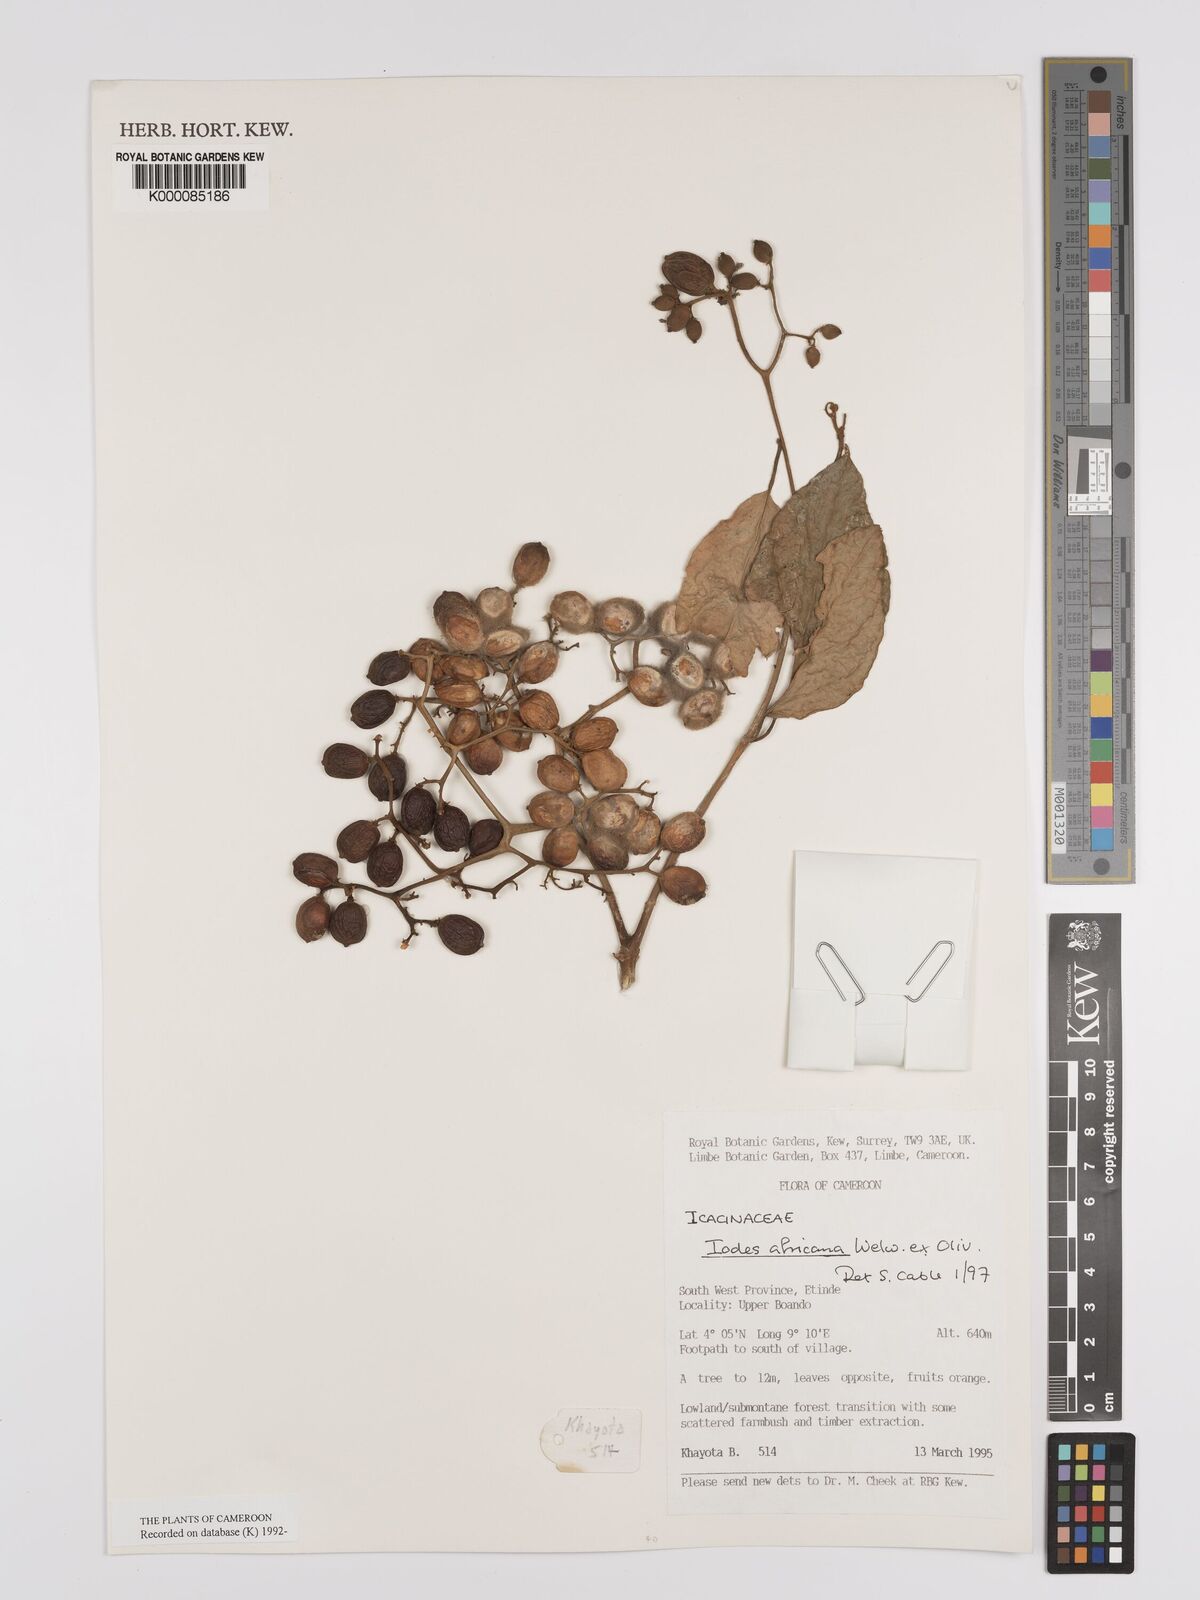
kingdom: Plantae
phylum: Tracheophyta
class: Magnoliopsida
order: Icacinales
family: Icacinaceae
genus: Iodes
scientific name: Iodes africana
